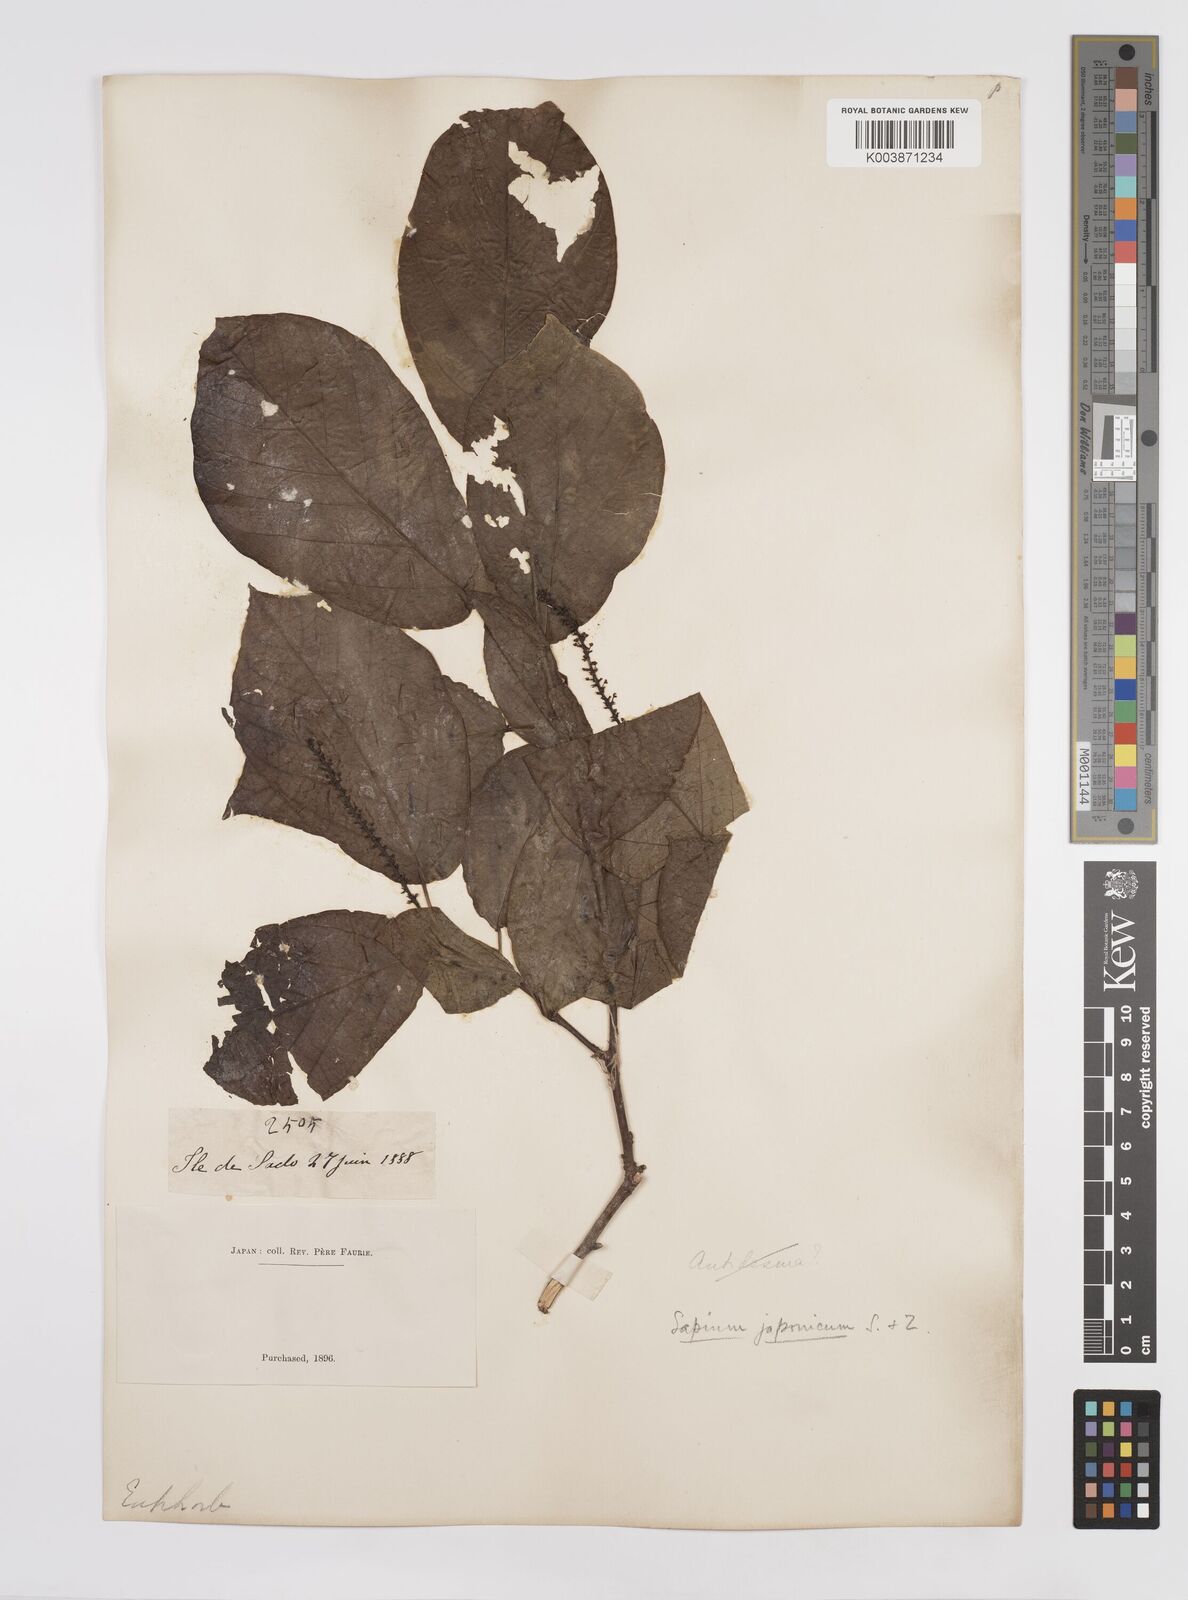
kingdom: Plantae
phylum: Tracheophyta
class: Magnoliopsida
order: Malpighiales
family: Euphorbiaceae
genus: Neoshirakia
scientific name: Neoshirakia japonica
